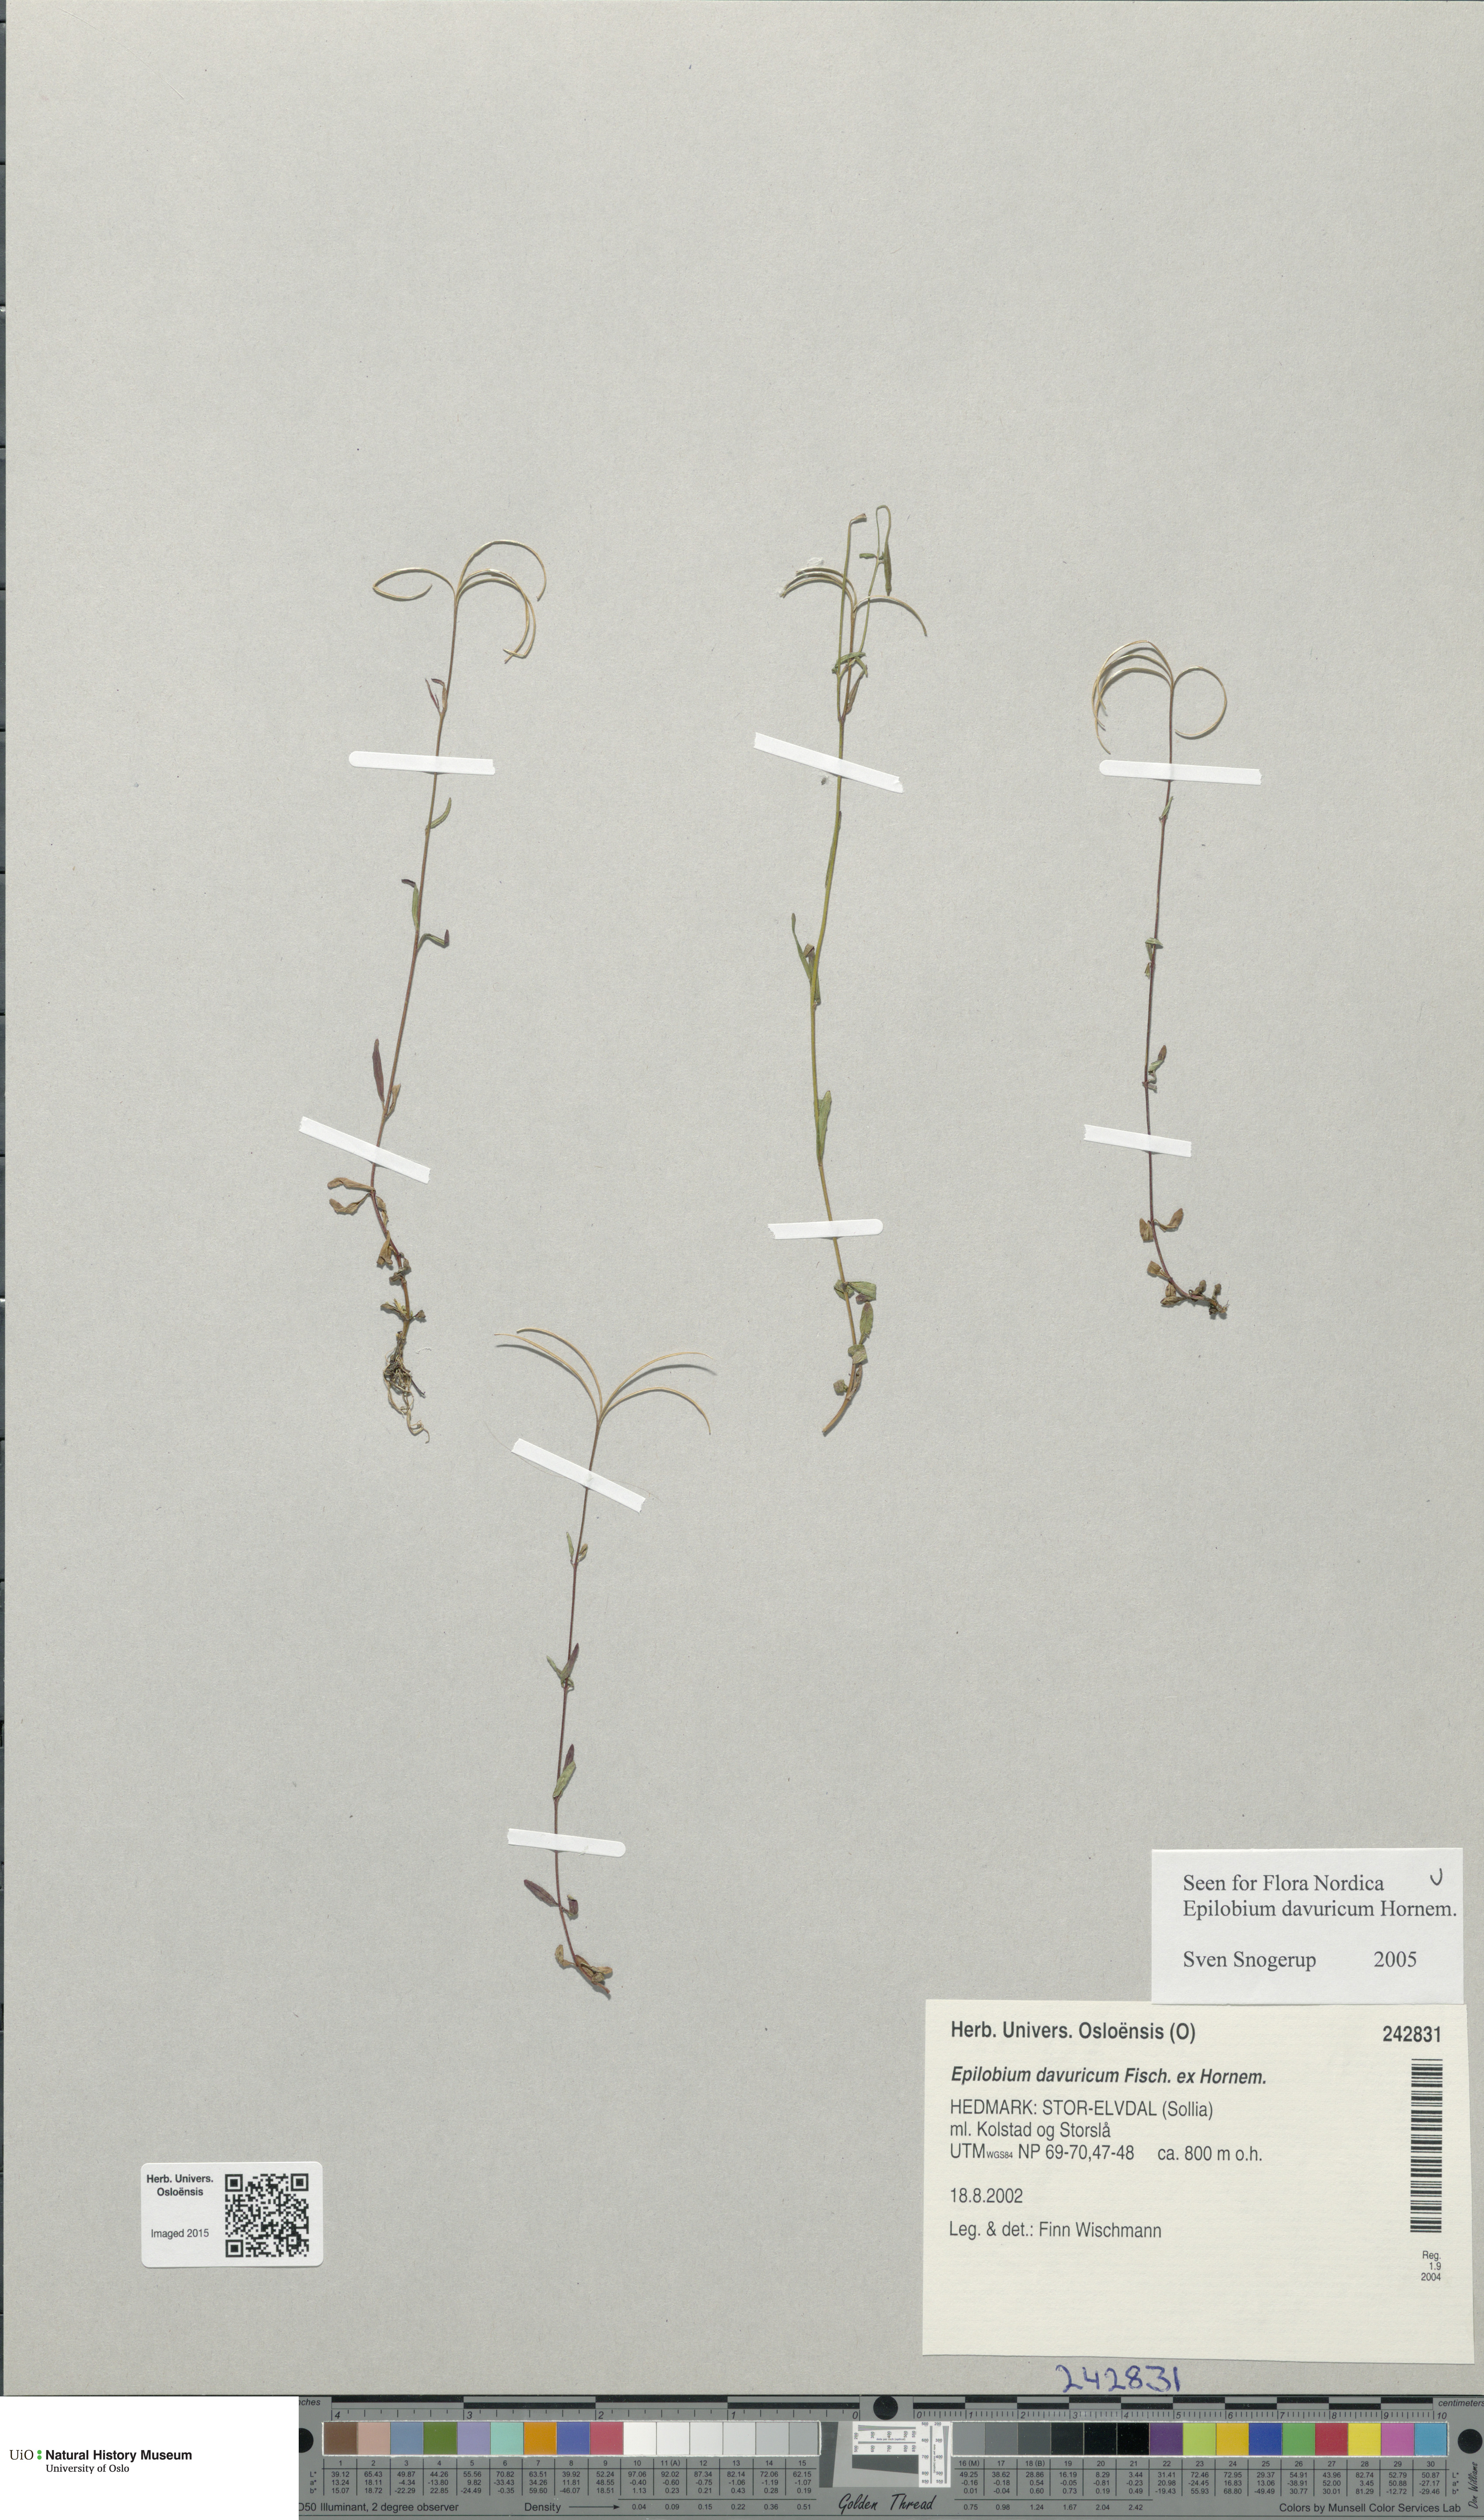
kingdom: Plantae
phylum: Tracheophyta
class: Magnoliopsida
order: Myrtales
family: Onagraceae
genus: Epilobium
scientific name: Epilobium davuricum
